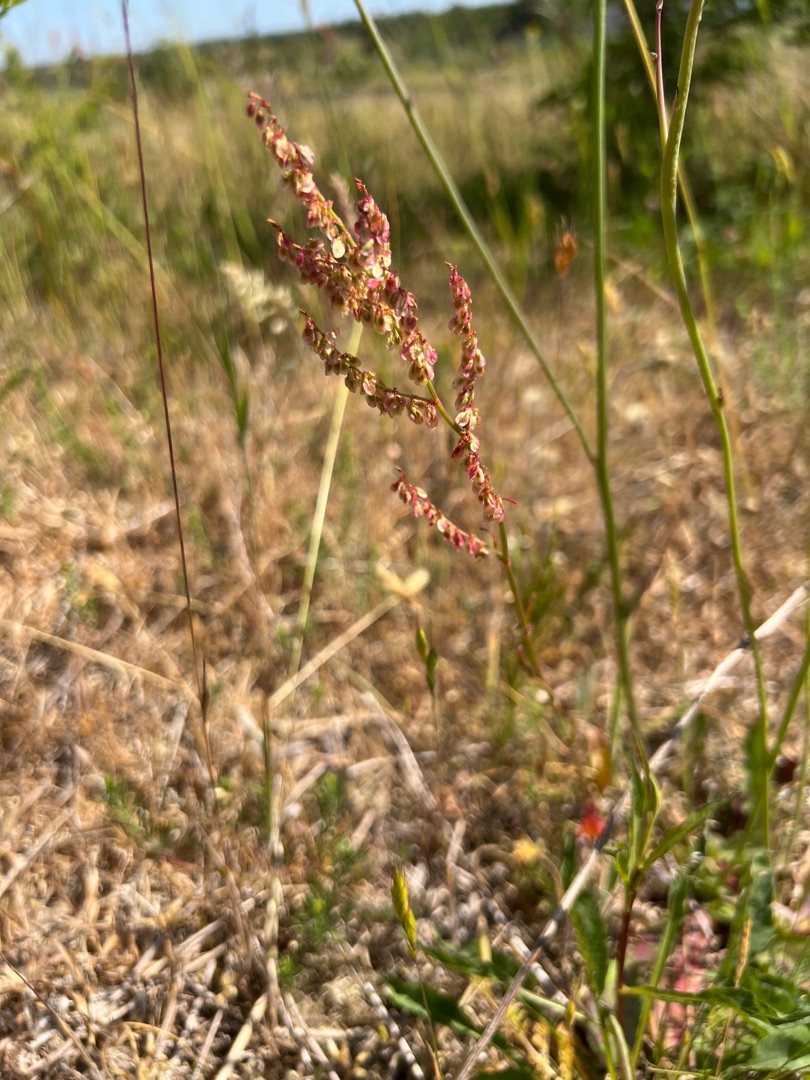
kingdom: Plantae
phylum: Tracheophyta
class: Magnoliopsida
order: Caryophyllales
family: Polygonaceae
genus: Rumex
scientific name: Rumex acetosa
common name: Almindelig syre
